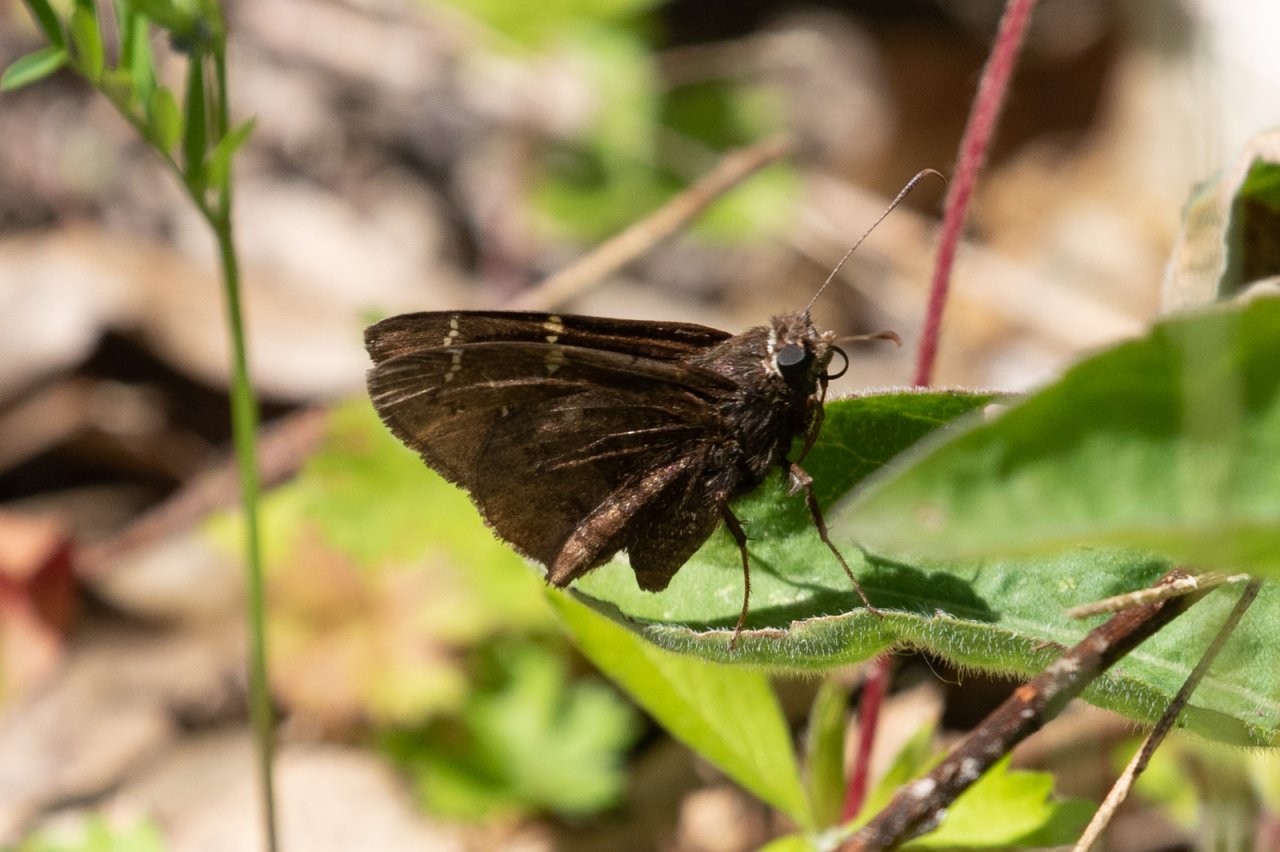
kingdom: Animalia
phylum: Arthropoda
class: Insecta
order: Lepidoptera
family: Hesperiidae
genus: Autochton
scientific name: Autochton
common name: Northern Cloudywing
